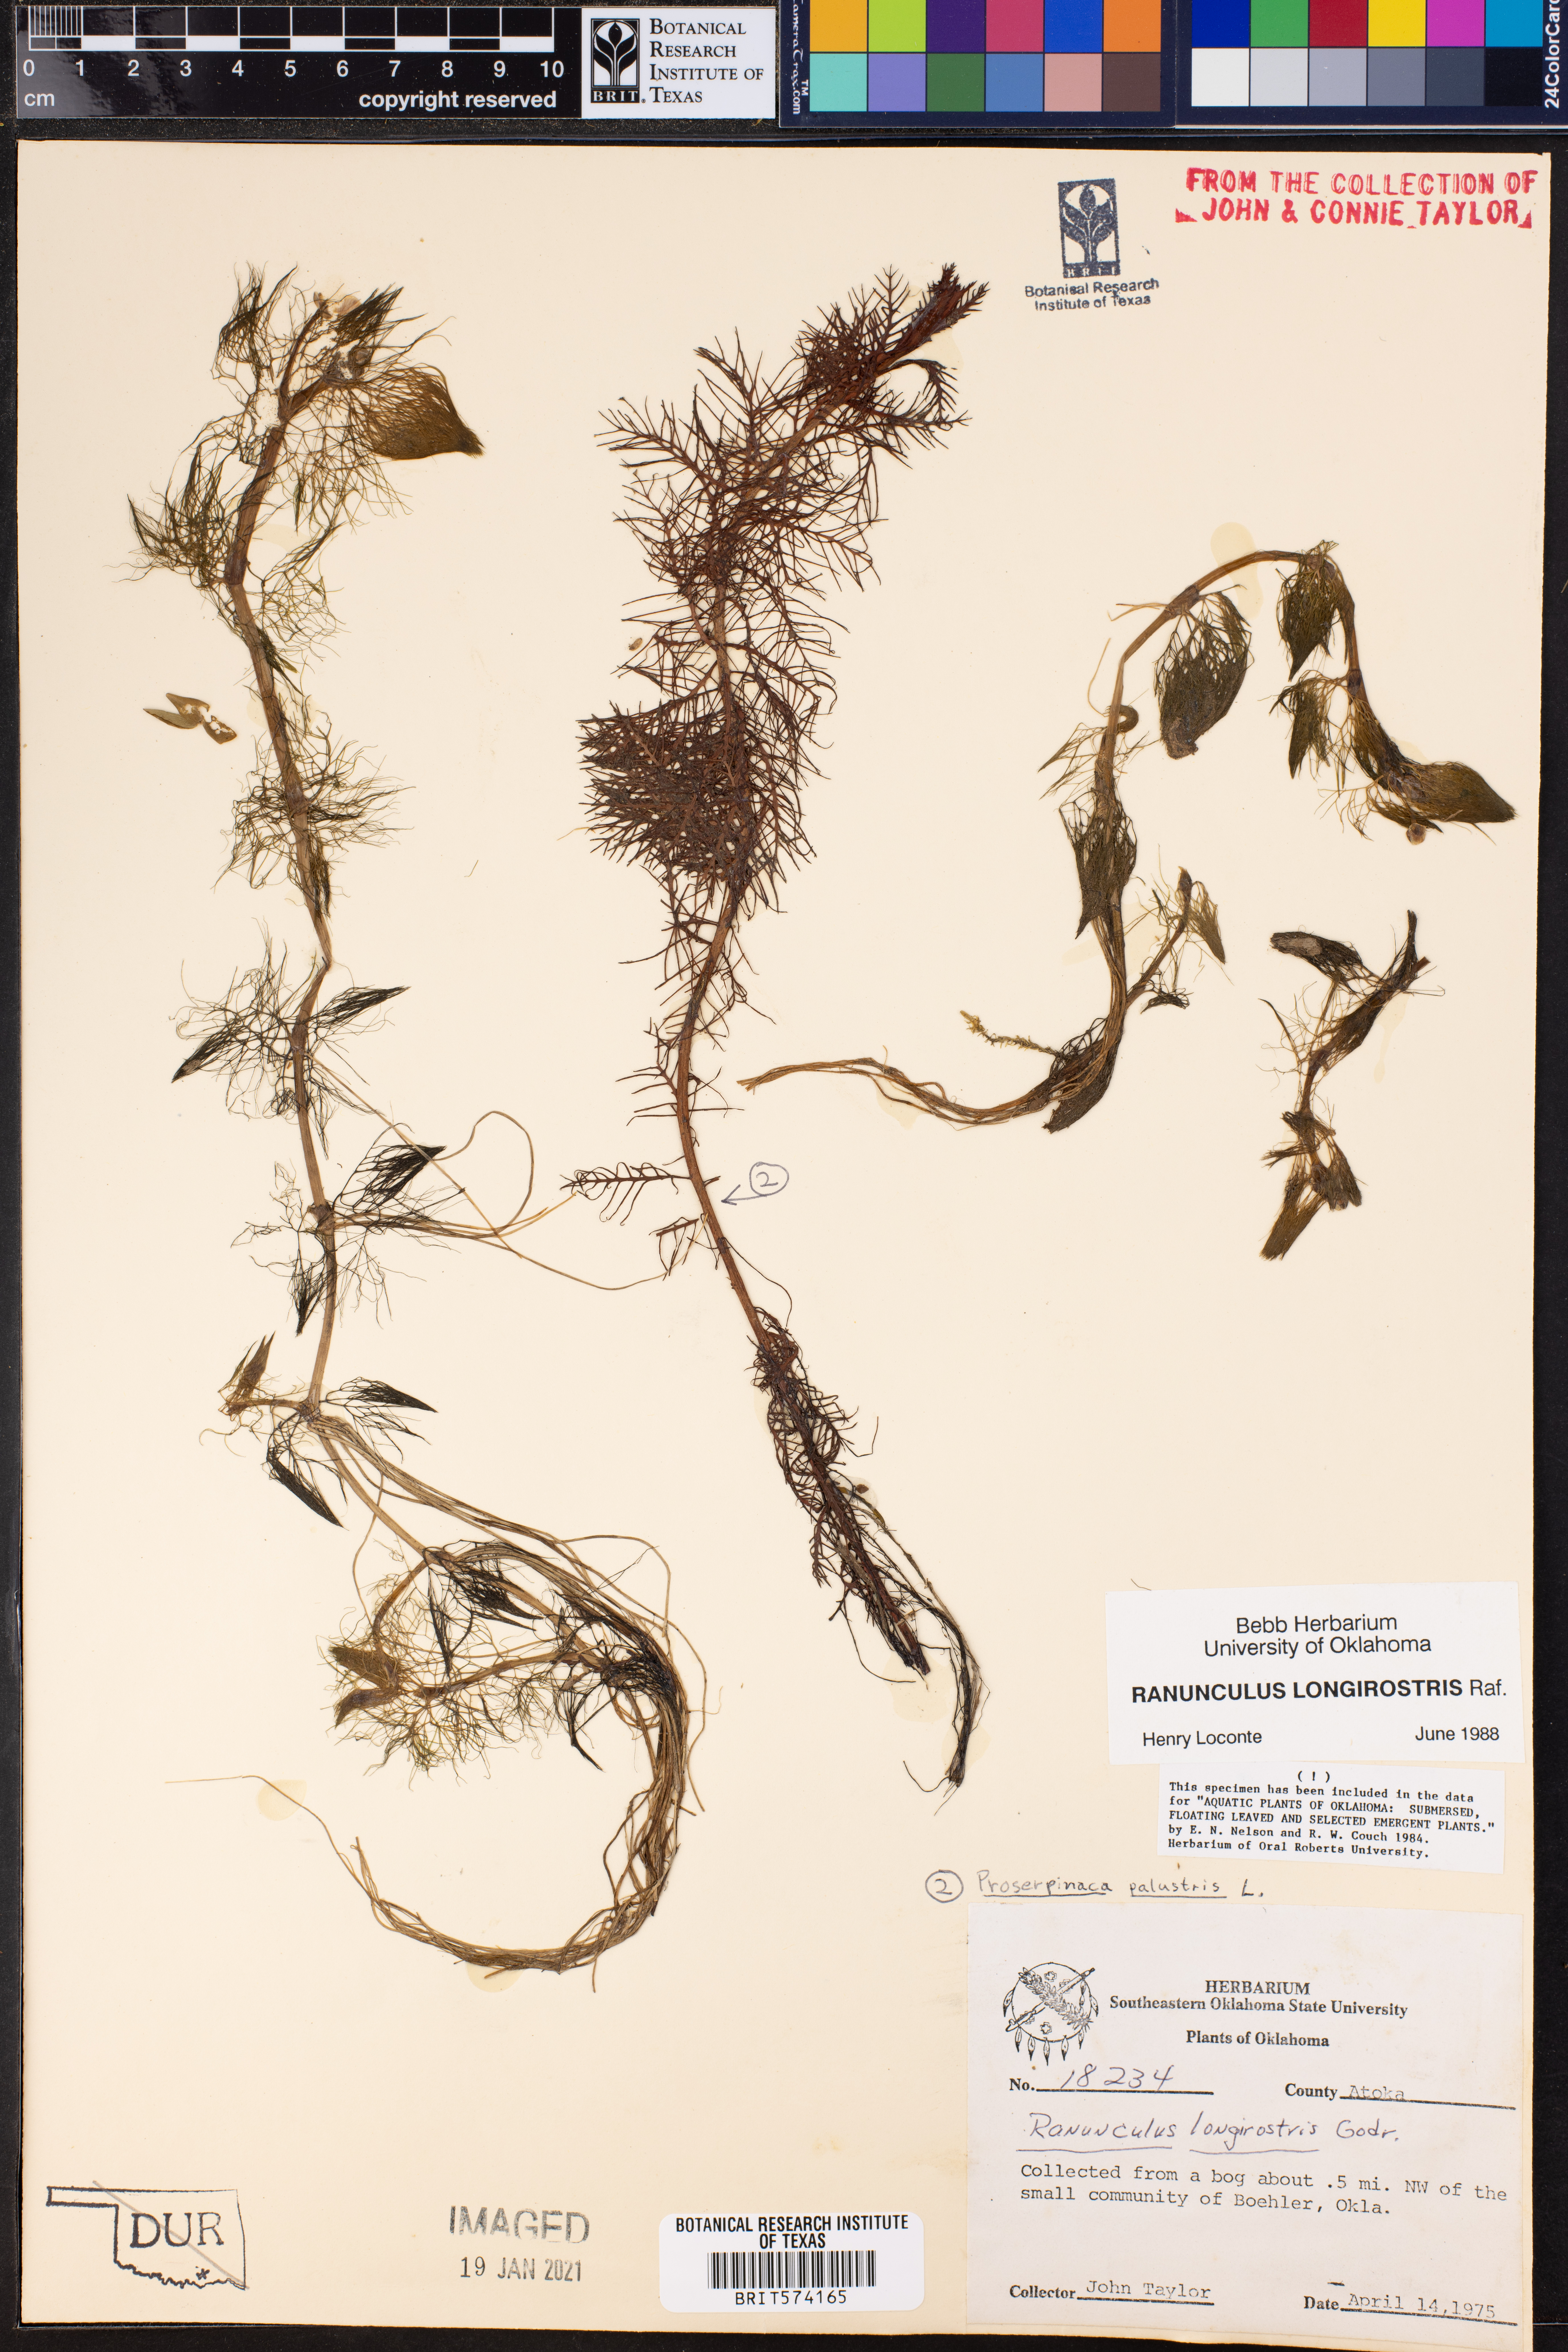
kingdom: Plantae
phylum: Tracheophyta
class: Magnoliopsida
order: Ranunculales
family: Ranunculaceae
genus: Ranunculus
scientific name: Ranunculus longirostris
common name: Curly white water-crowfoot
